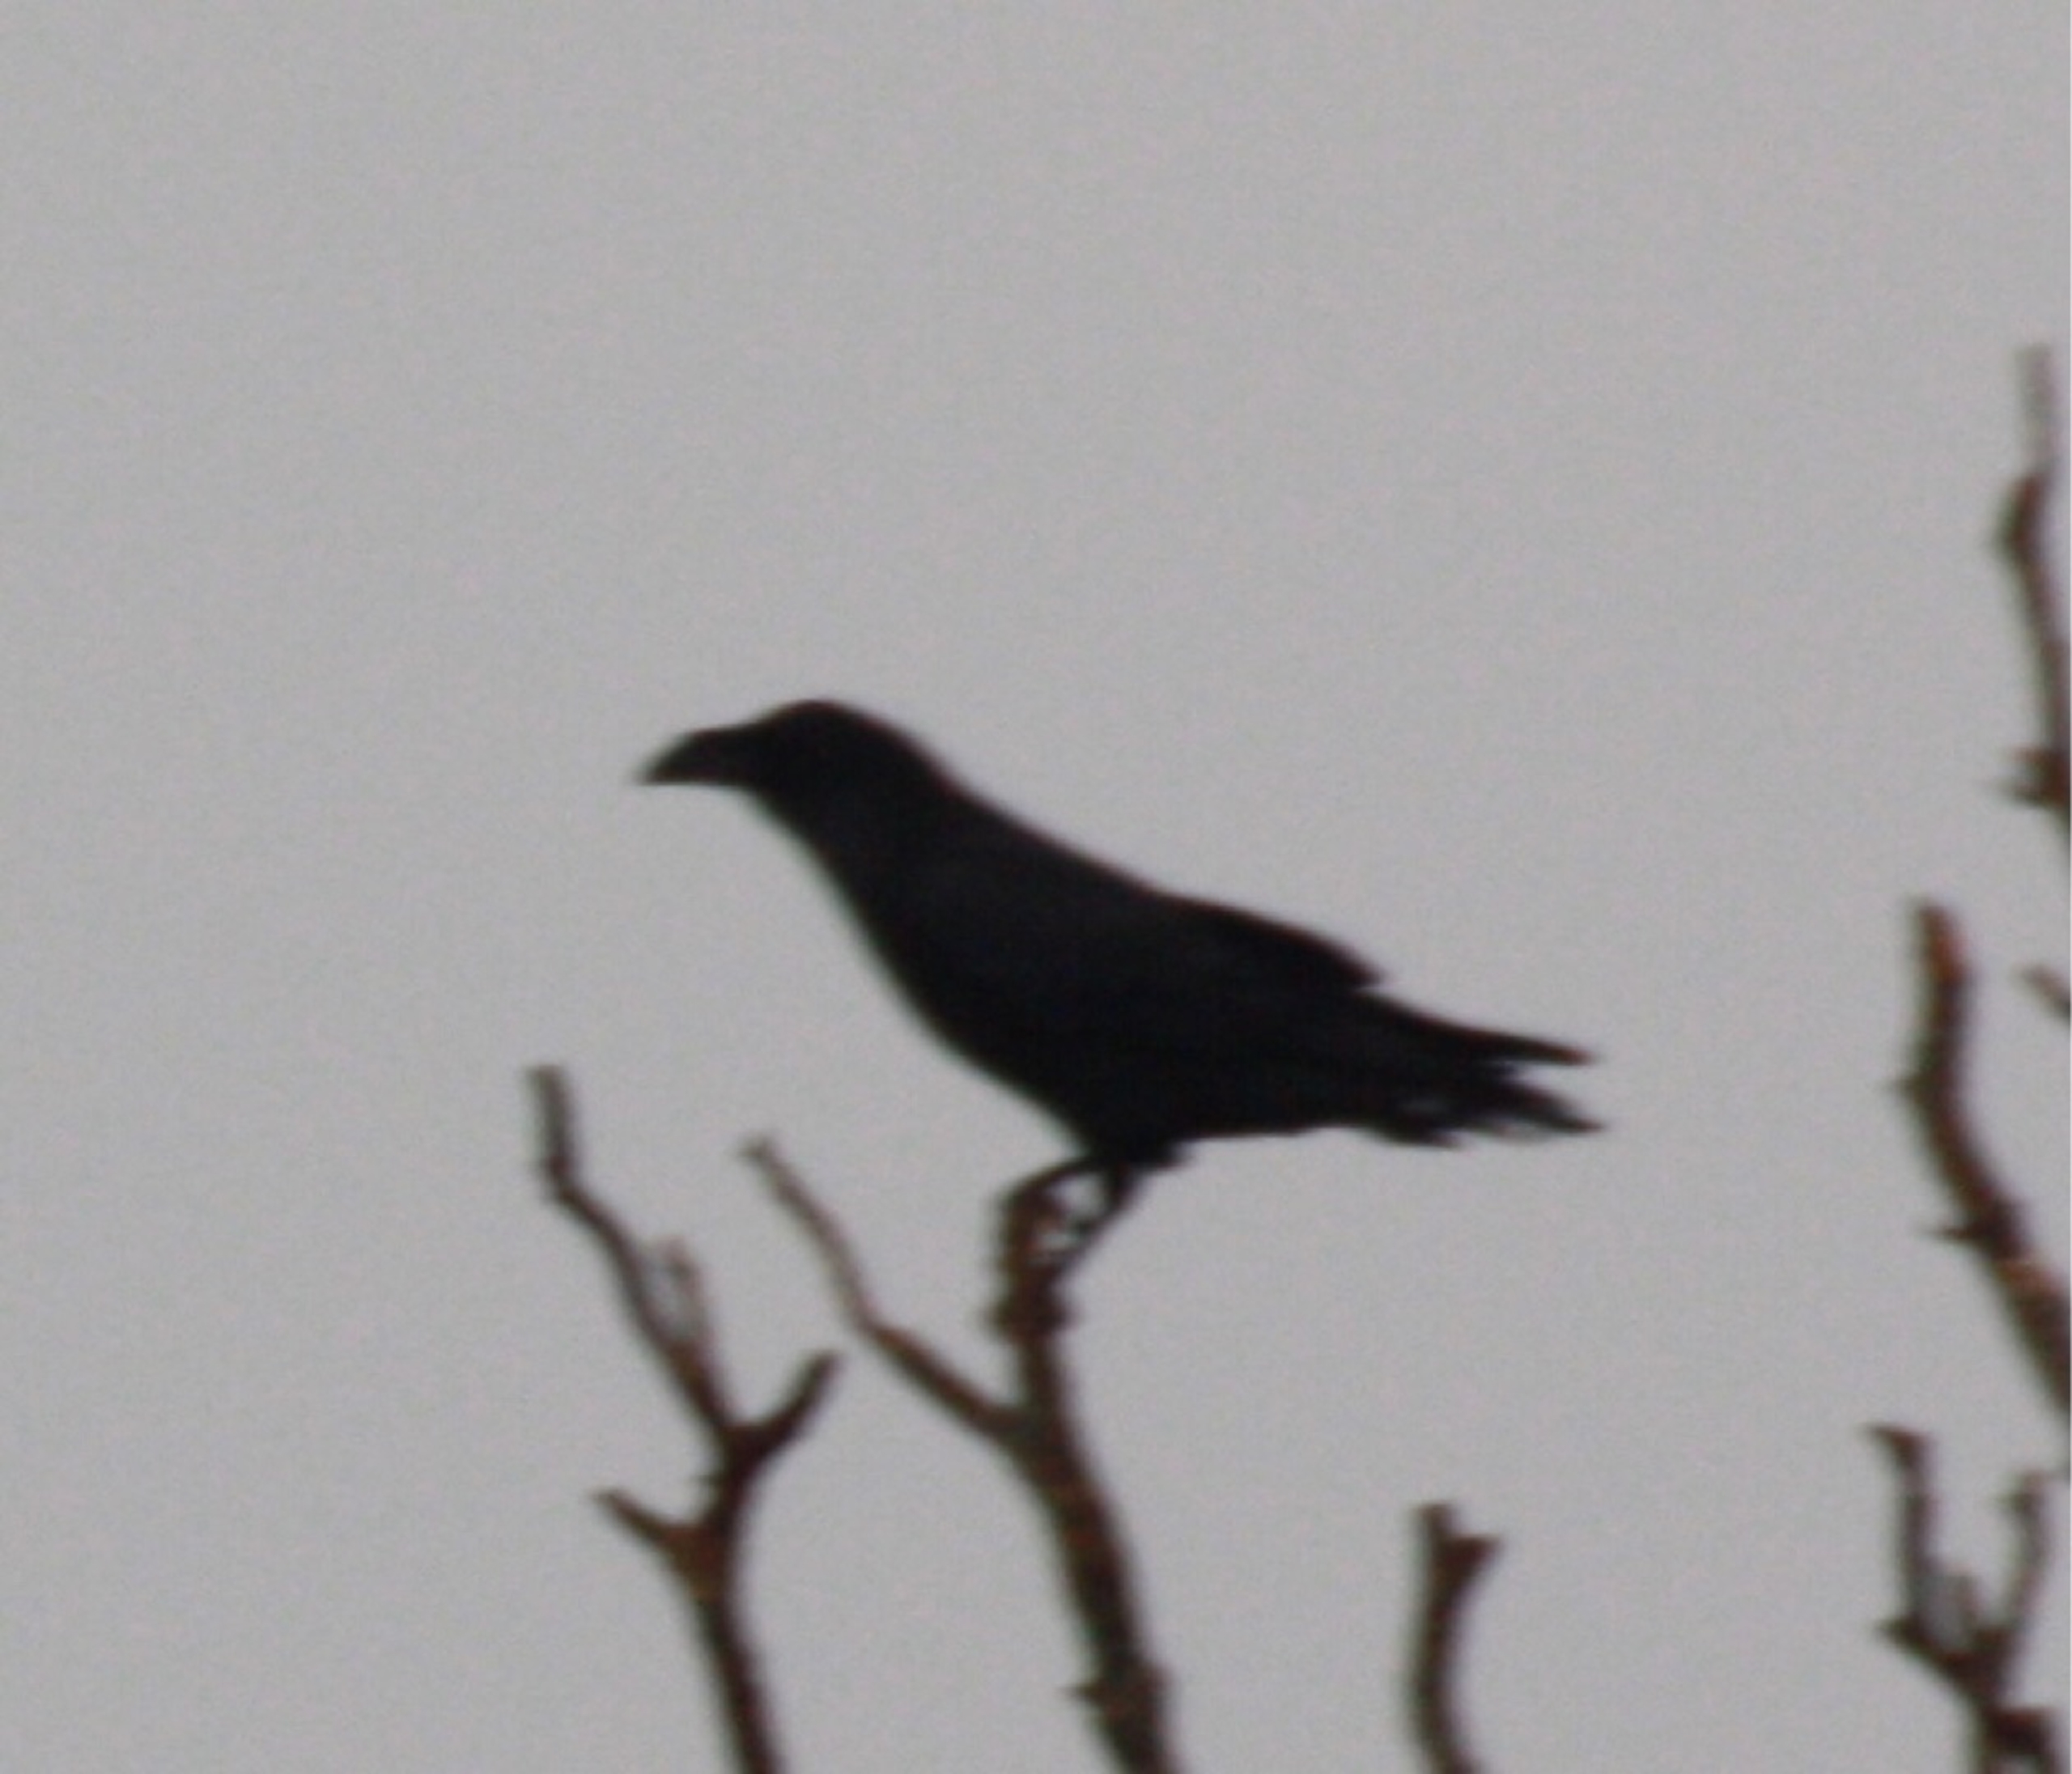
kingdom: Animalia
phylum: Chordata
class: Aves
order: Passeriformes
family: Corvidae
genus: Corvus
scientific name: Corvus corax
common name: Ravn
